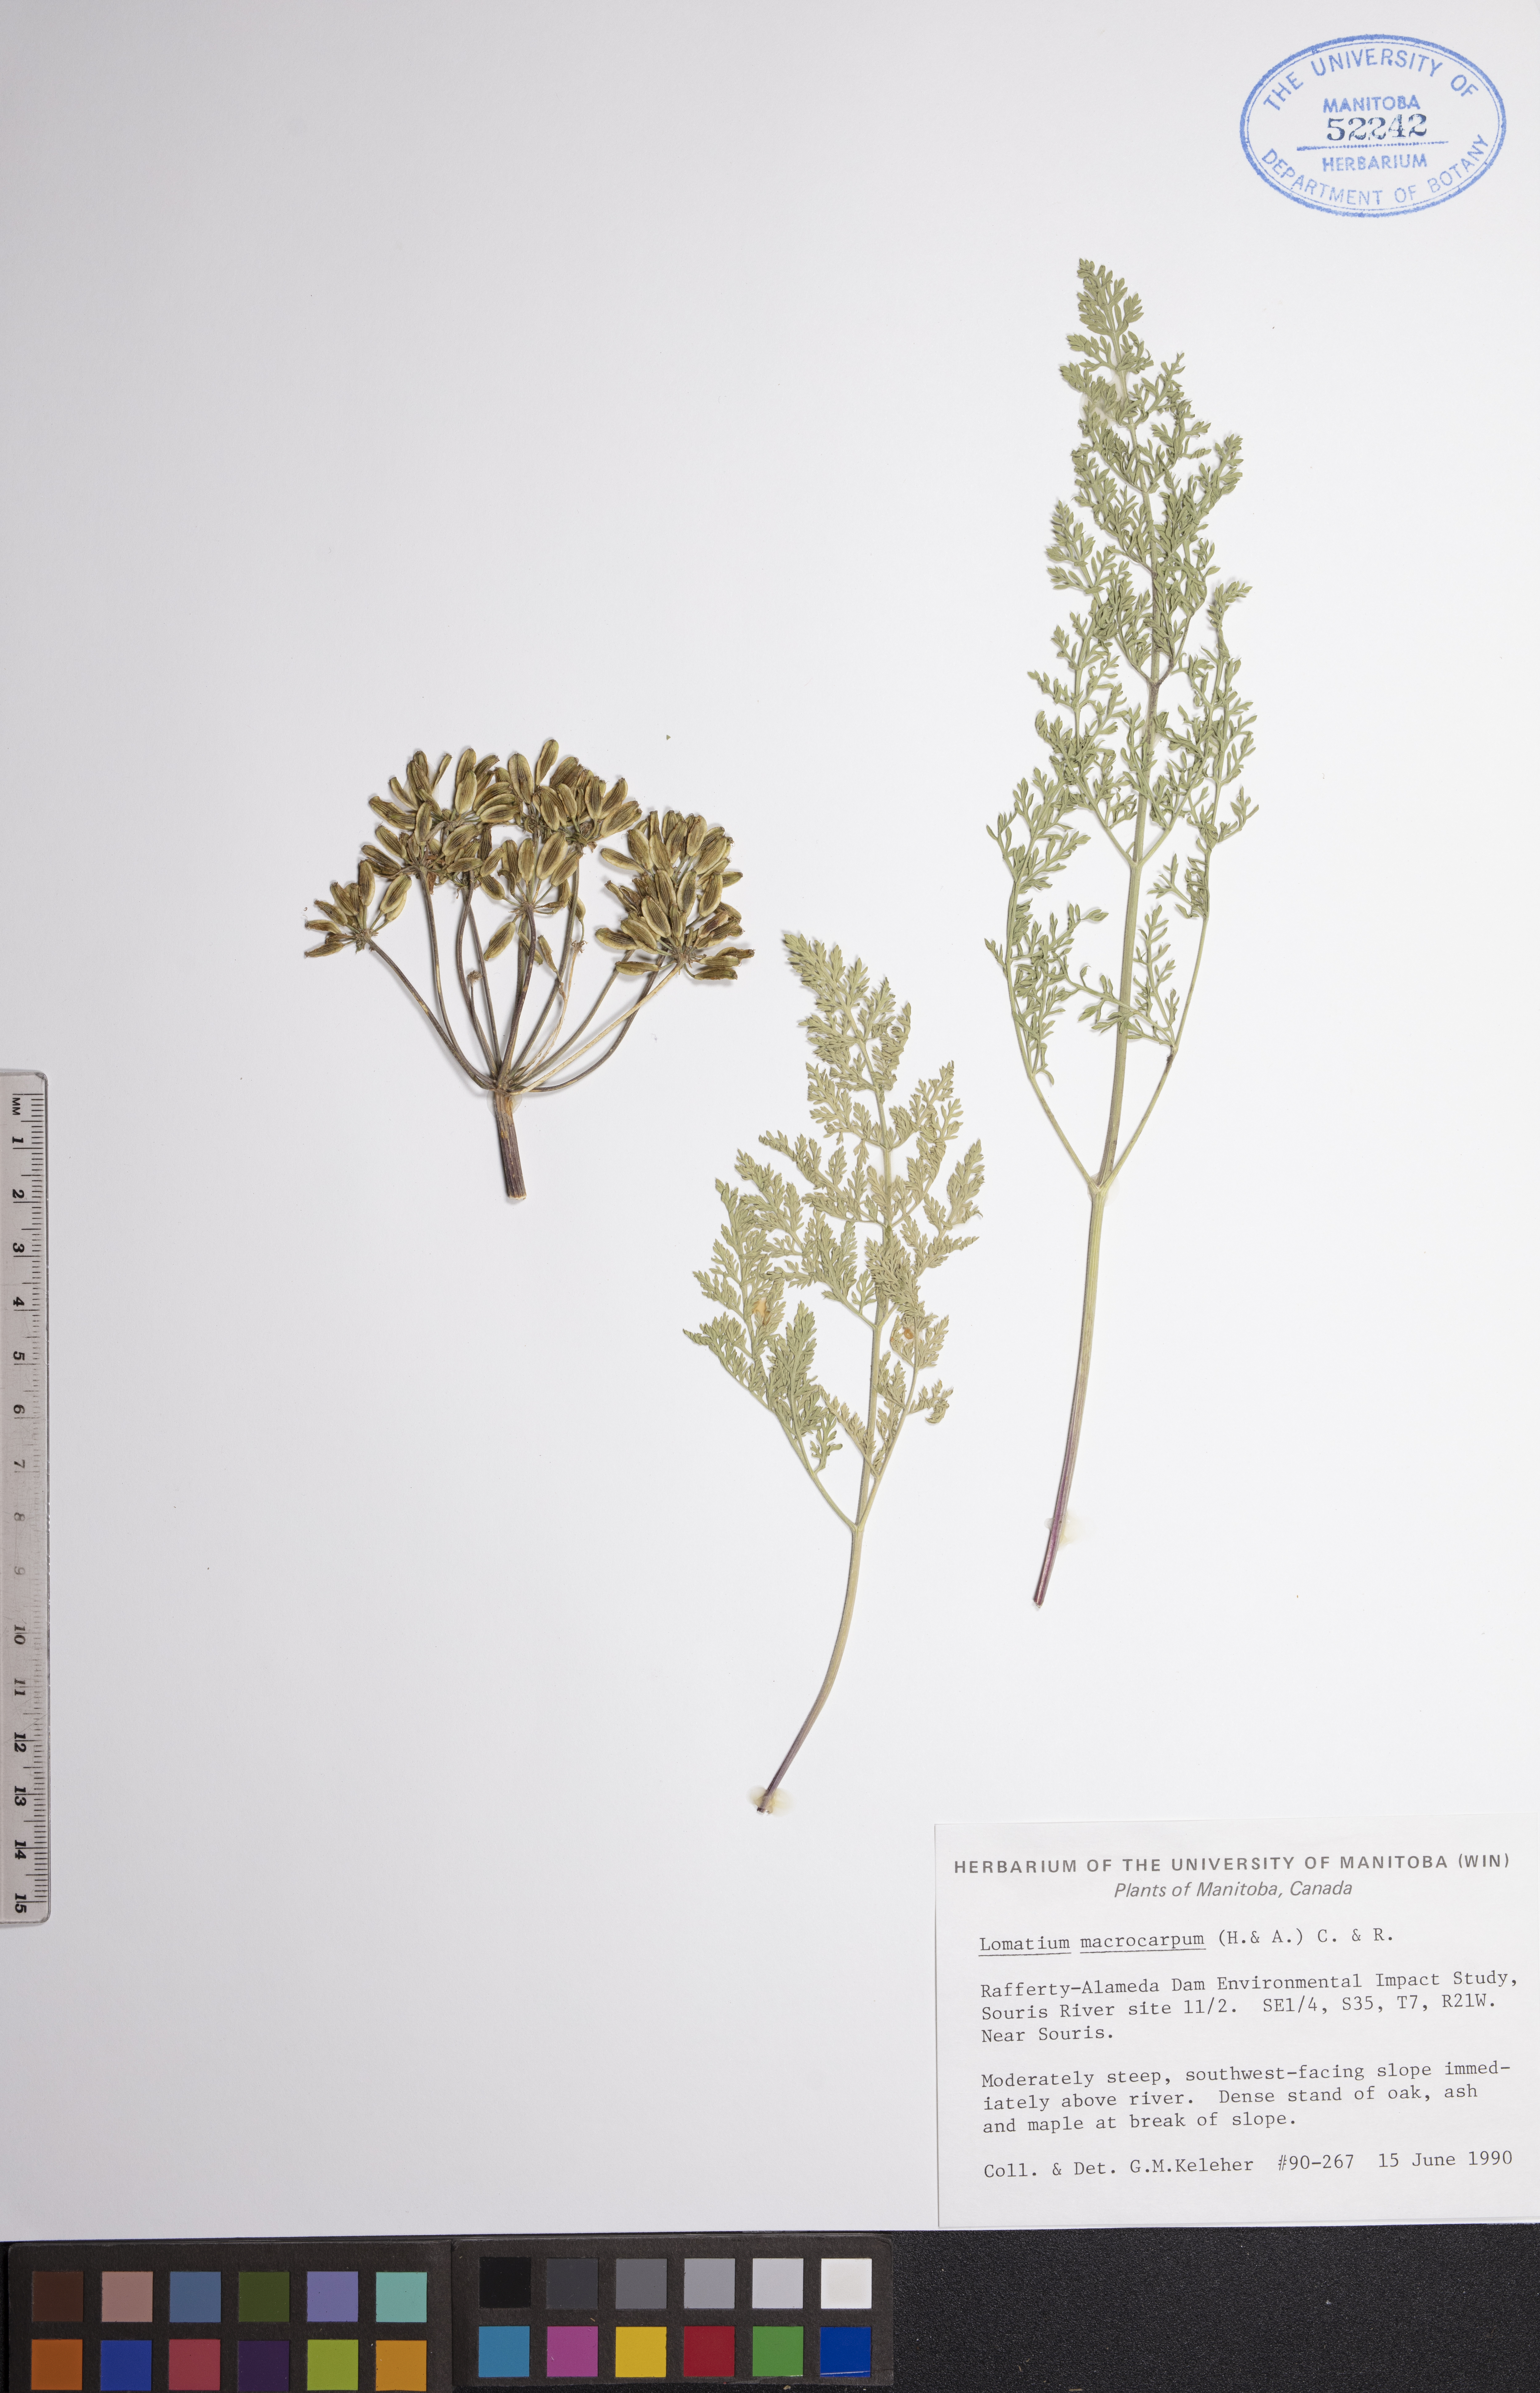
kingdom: Plantae
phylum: Tracheophyta
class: Magnoliopsida
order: Apiales
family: Apiaceae
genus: Lomatium
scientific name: Lomatium macrocarpum
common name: Big-seed biscuitroot
